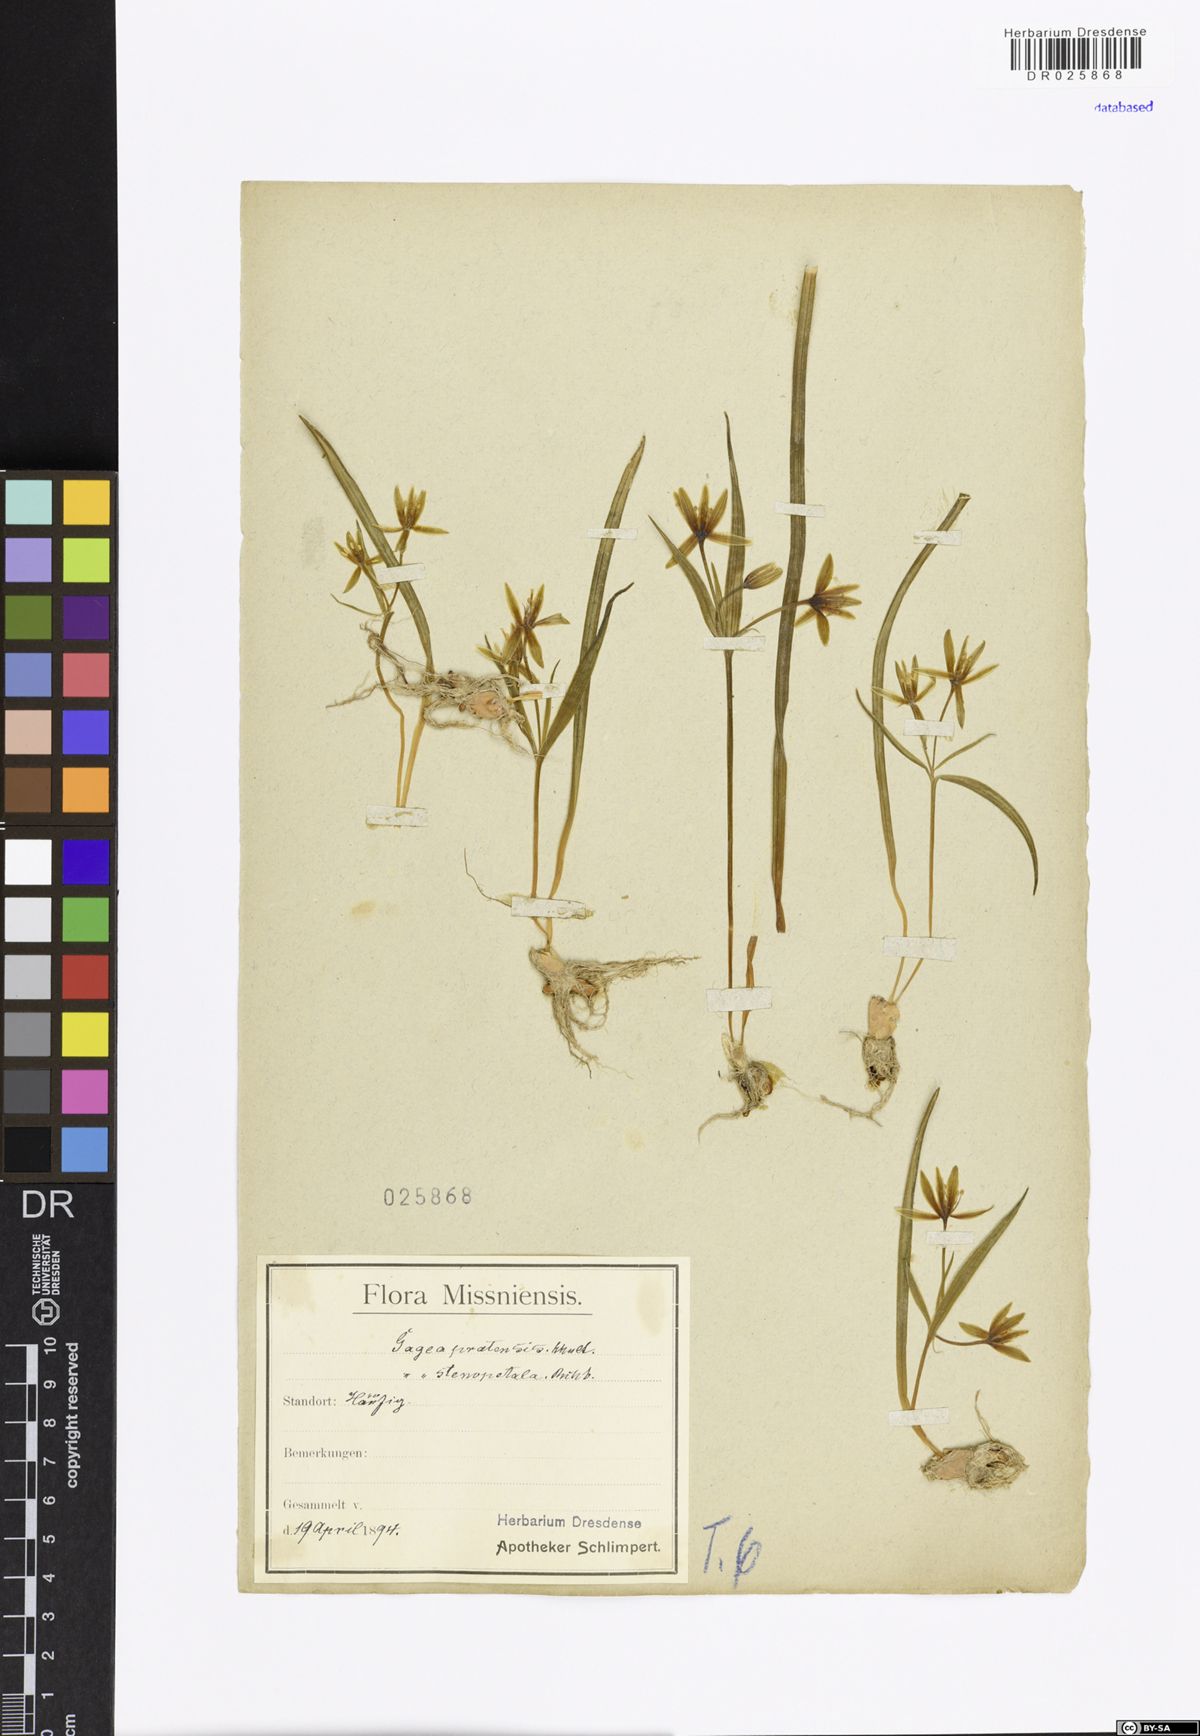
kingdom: Plantae
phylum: Tracheophyta
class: Liliopsida
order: Liliales
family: Liliaceae
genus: Gagea
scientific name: Gagea pratensis
